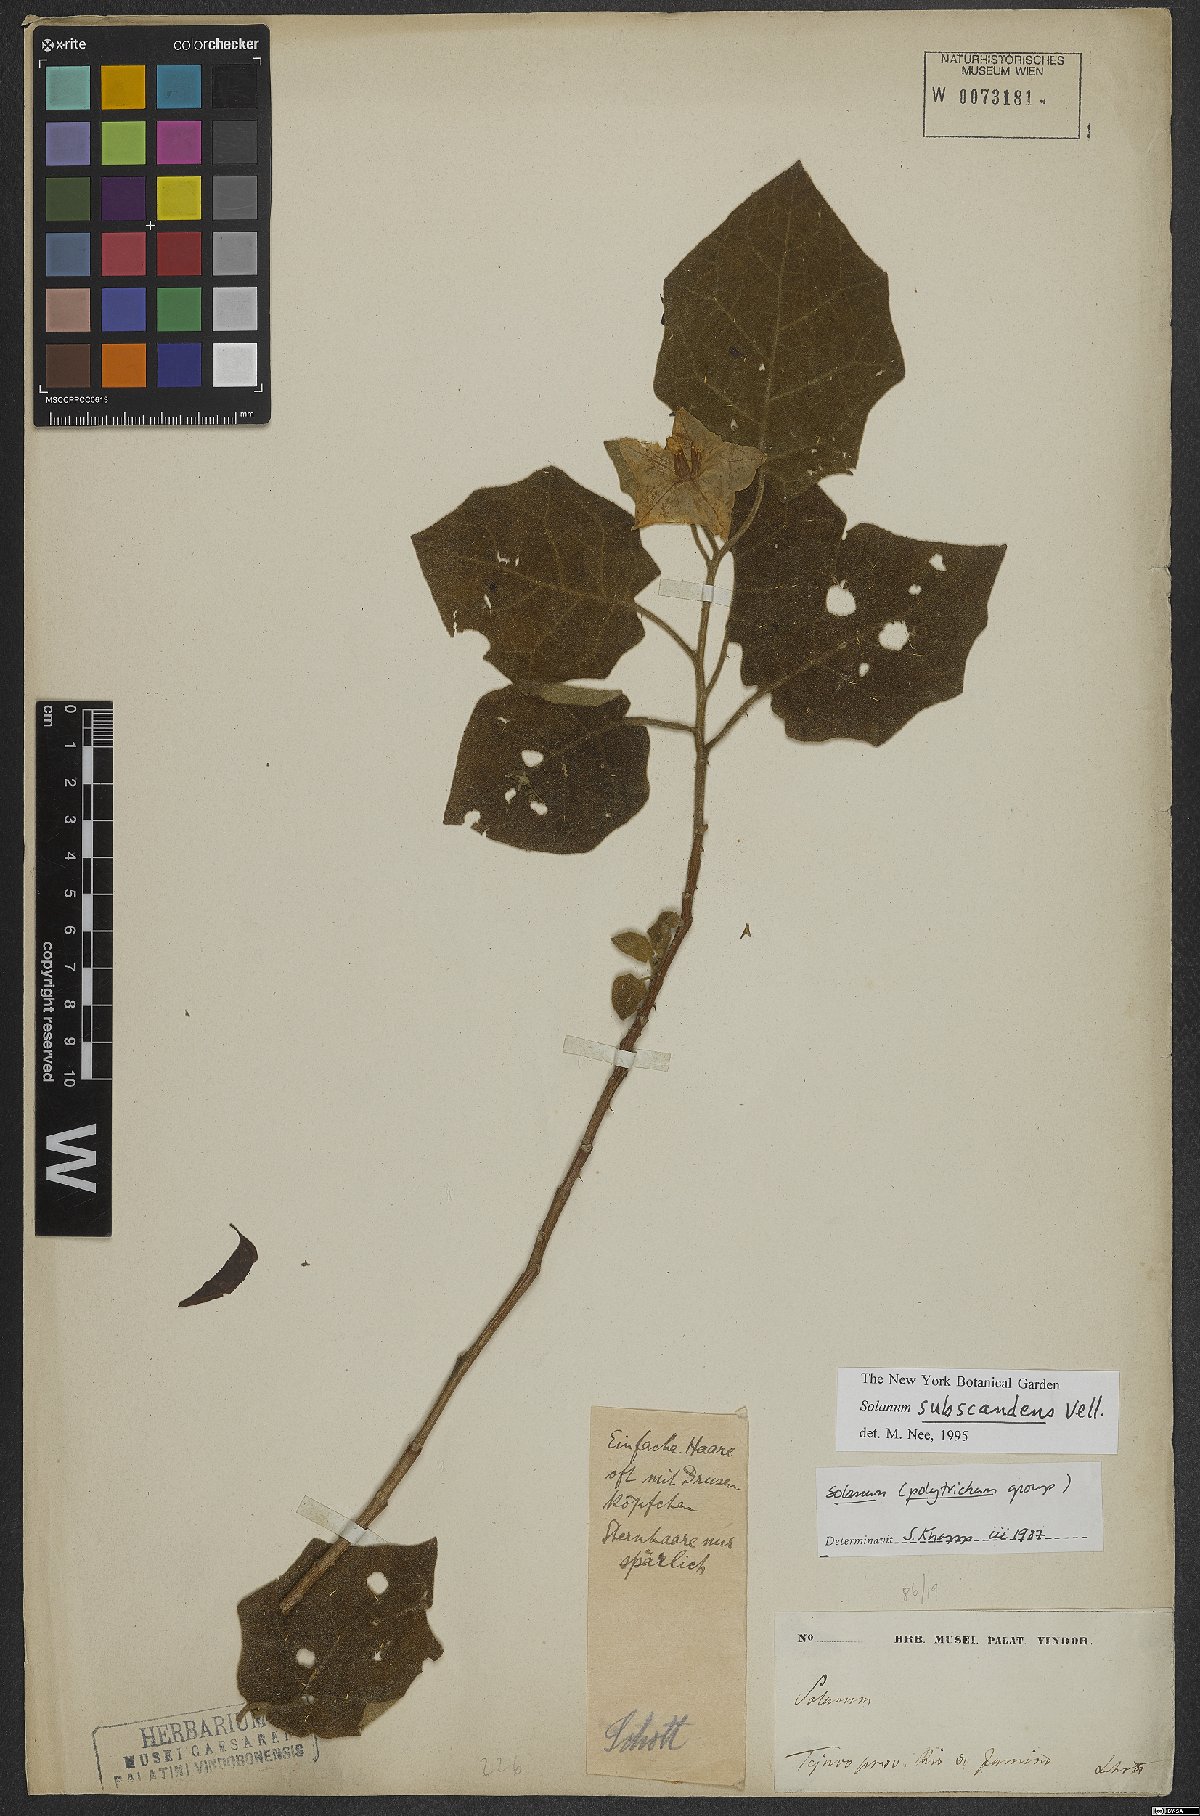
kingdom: Plantae
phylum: Tracheophyta
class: Magnoliopsida
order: Solanales
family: Solanaceae
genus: Solanum
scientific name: Solanum sublentum
